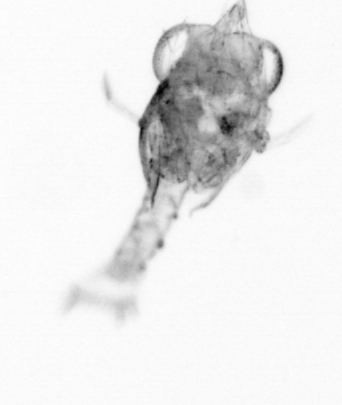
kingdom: Animalia
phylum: Arthropoda
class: Copepoda
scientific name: Copepoda
